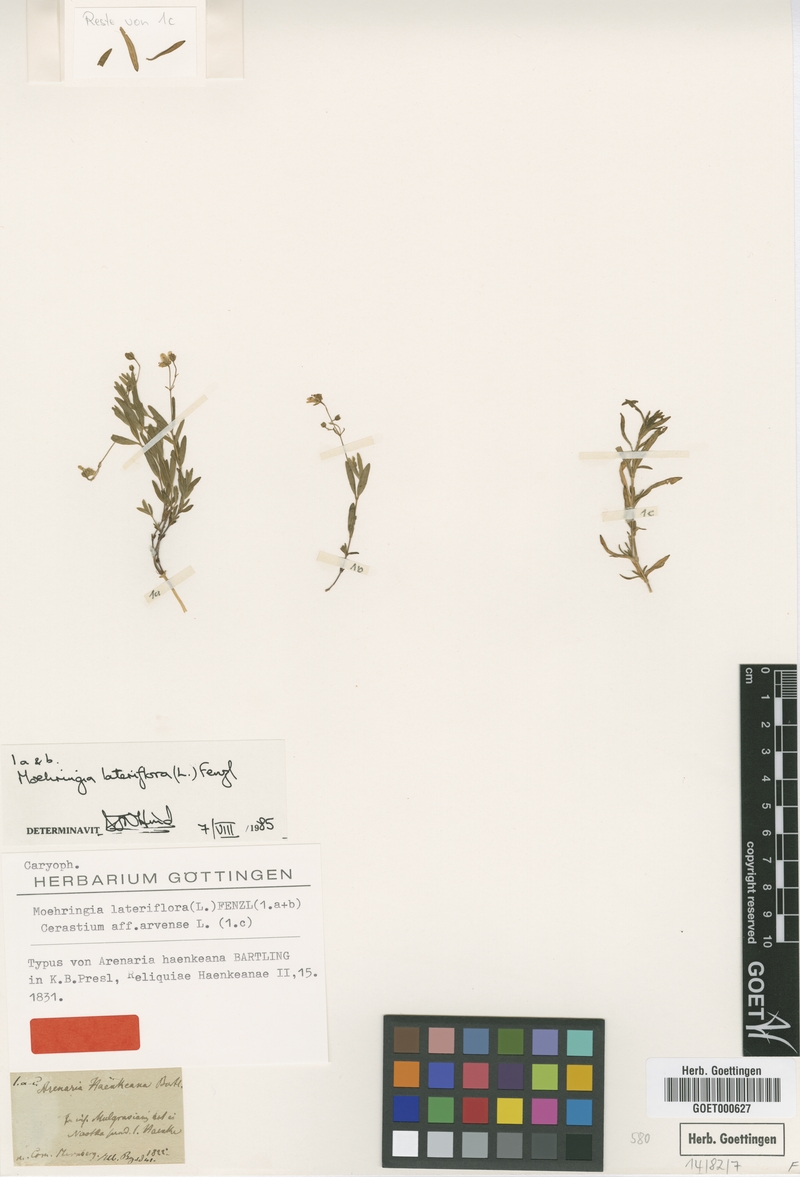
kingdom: Plantae
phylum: Tracheophyta
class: Magnoliopsida
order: Caryophyllales
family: Caryophyllaceae
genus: Moehringia
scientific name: Moehringia lateriflora
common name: Blunt-leaved sandwort
